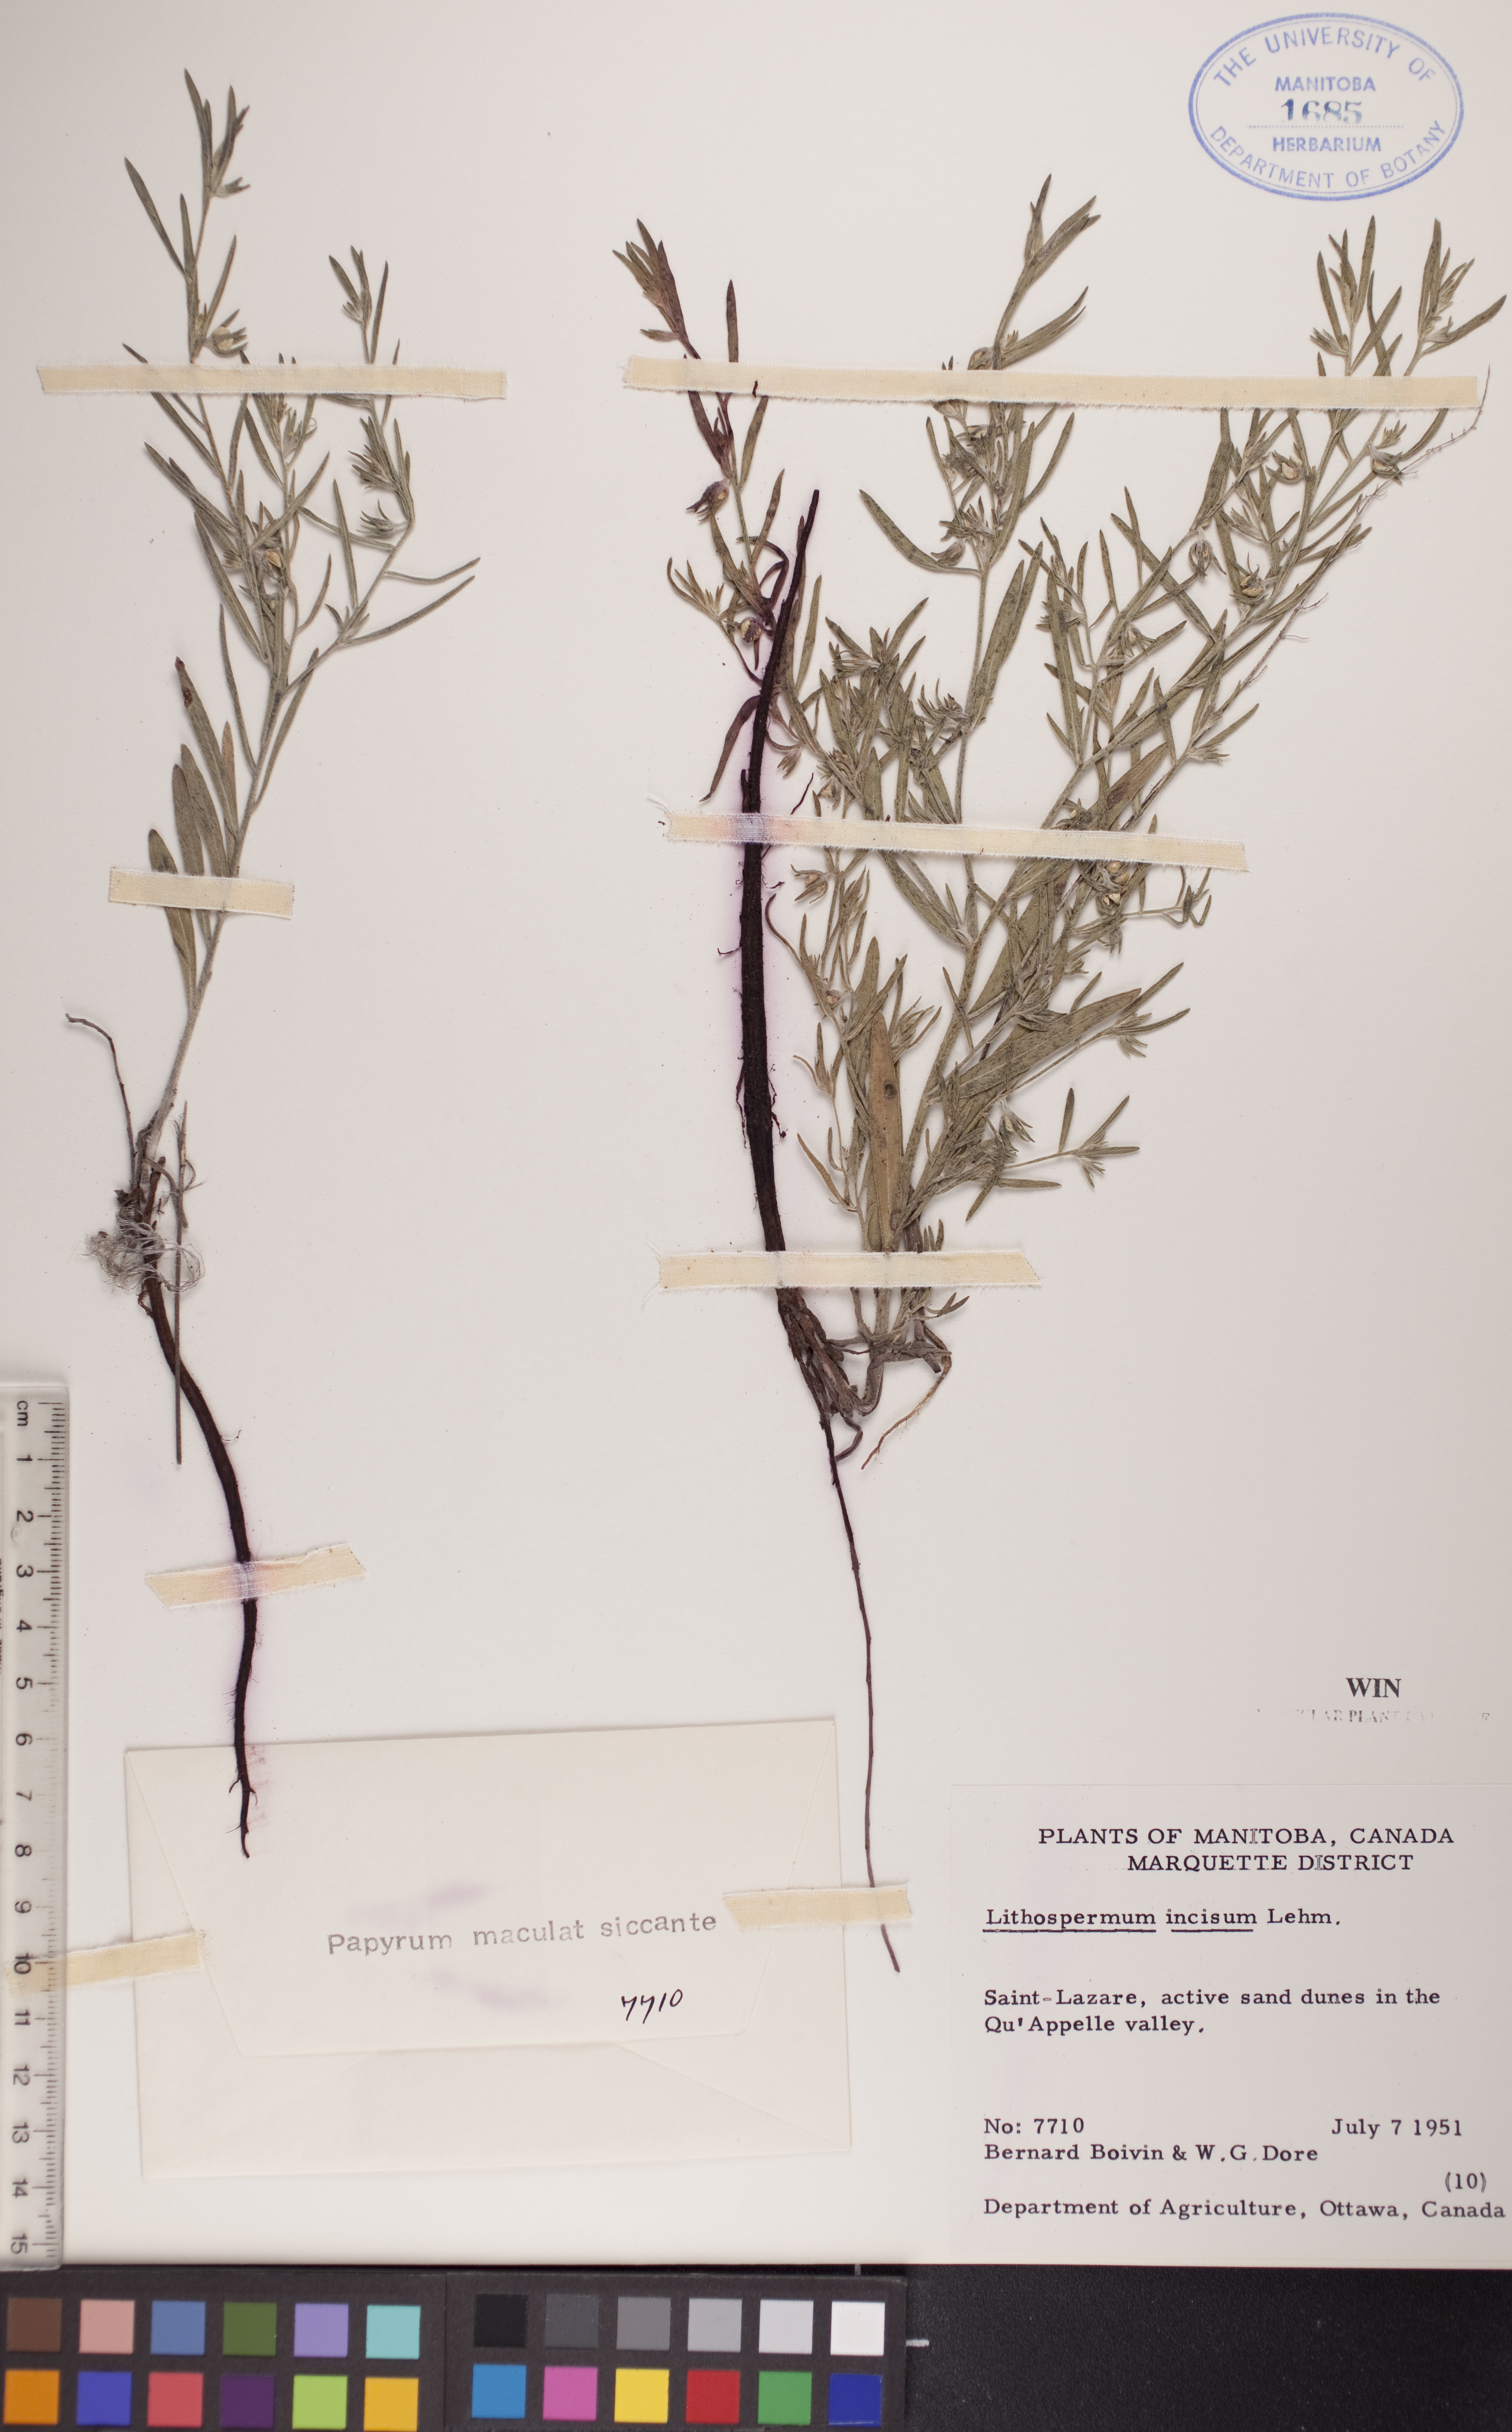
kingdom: Plantae
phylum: Tracheophyta
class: Magnoliopsida
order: Boraginales
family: Boraginaceae
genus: Lithospermum
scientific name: Lithospermum incisum
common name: Fringed gromwell
